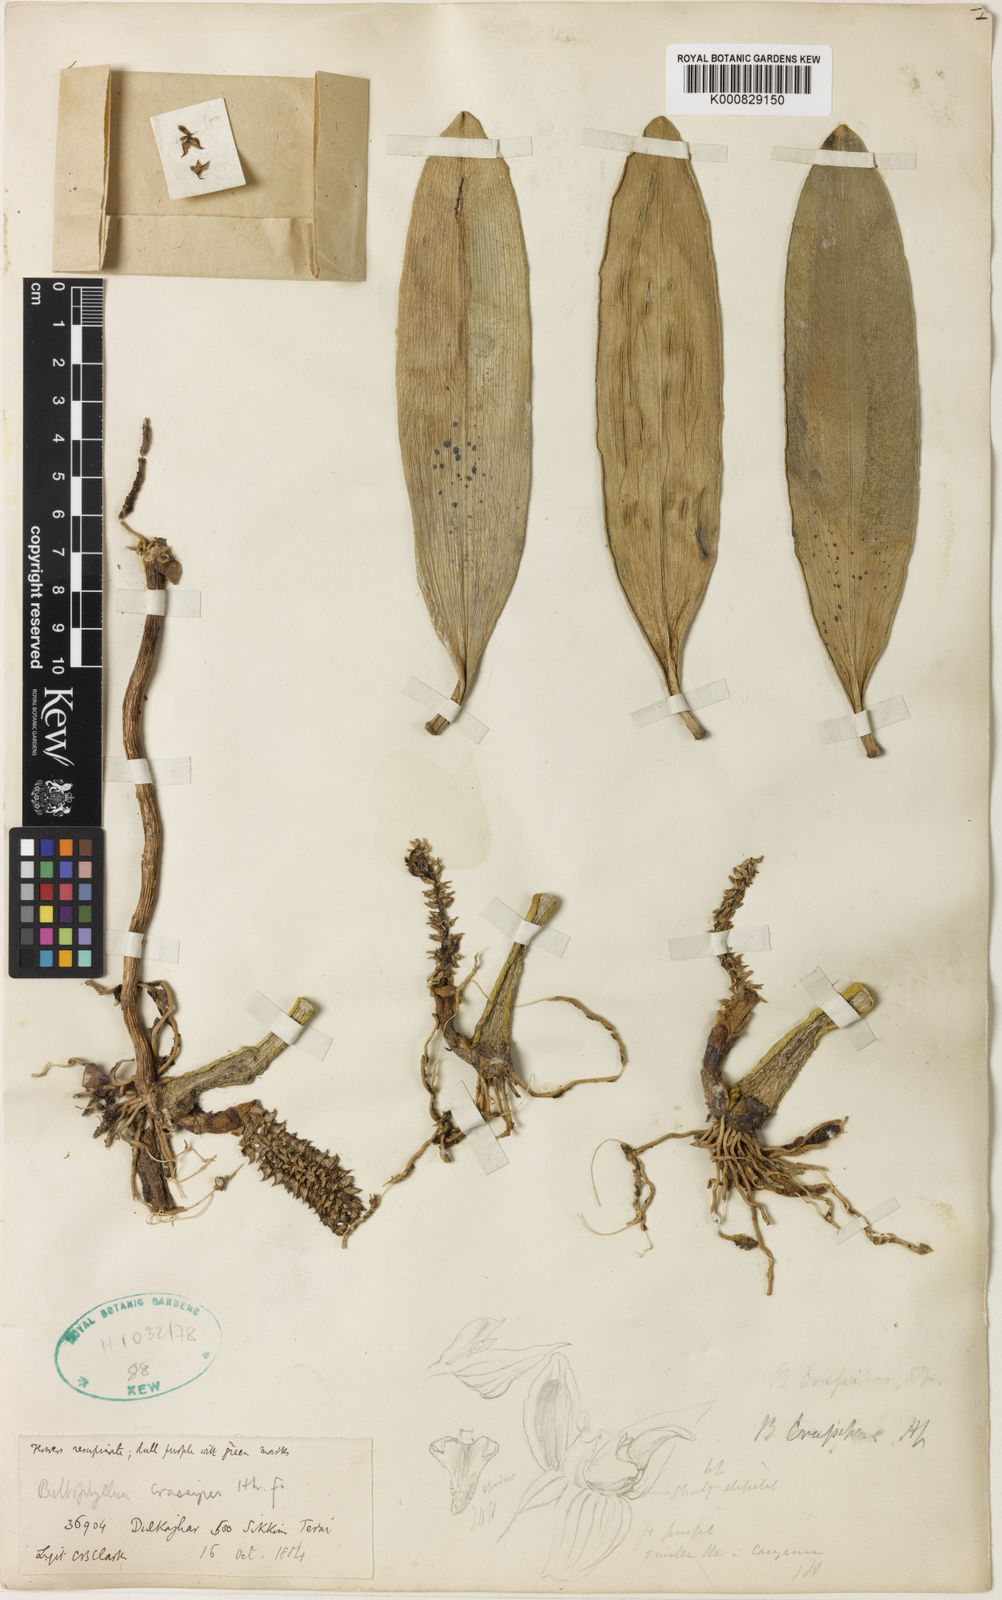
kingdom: Plantae
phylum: Tracheophyta
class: Liliopsida
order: Asparagales
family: Orchidaceae
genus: Bulbophyllum
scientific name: Bulbophyllum crassipes
